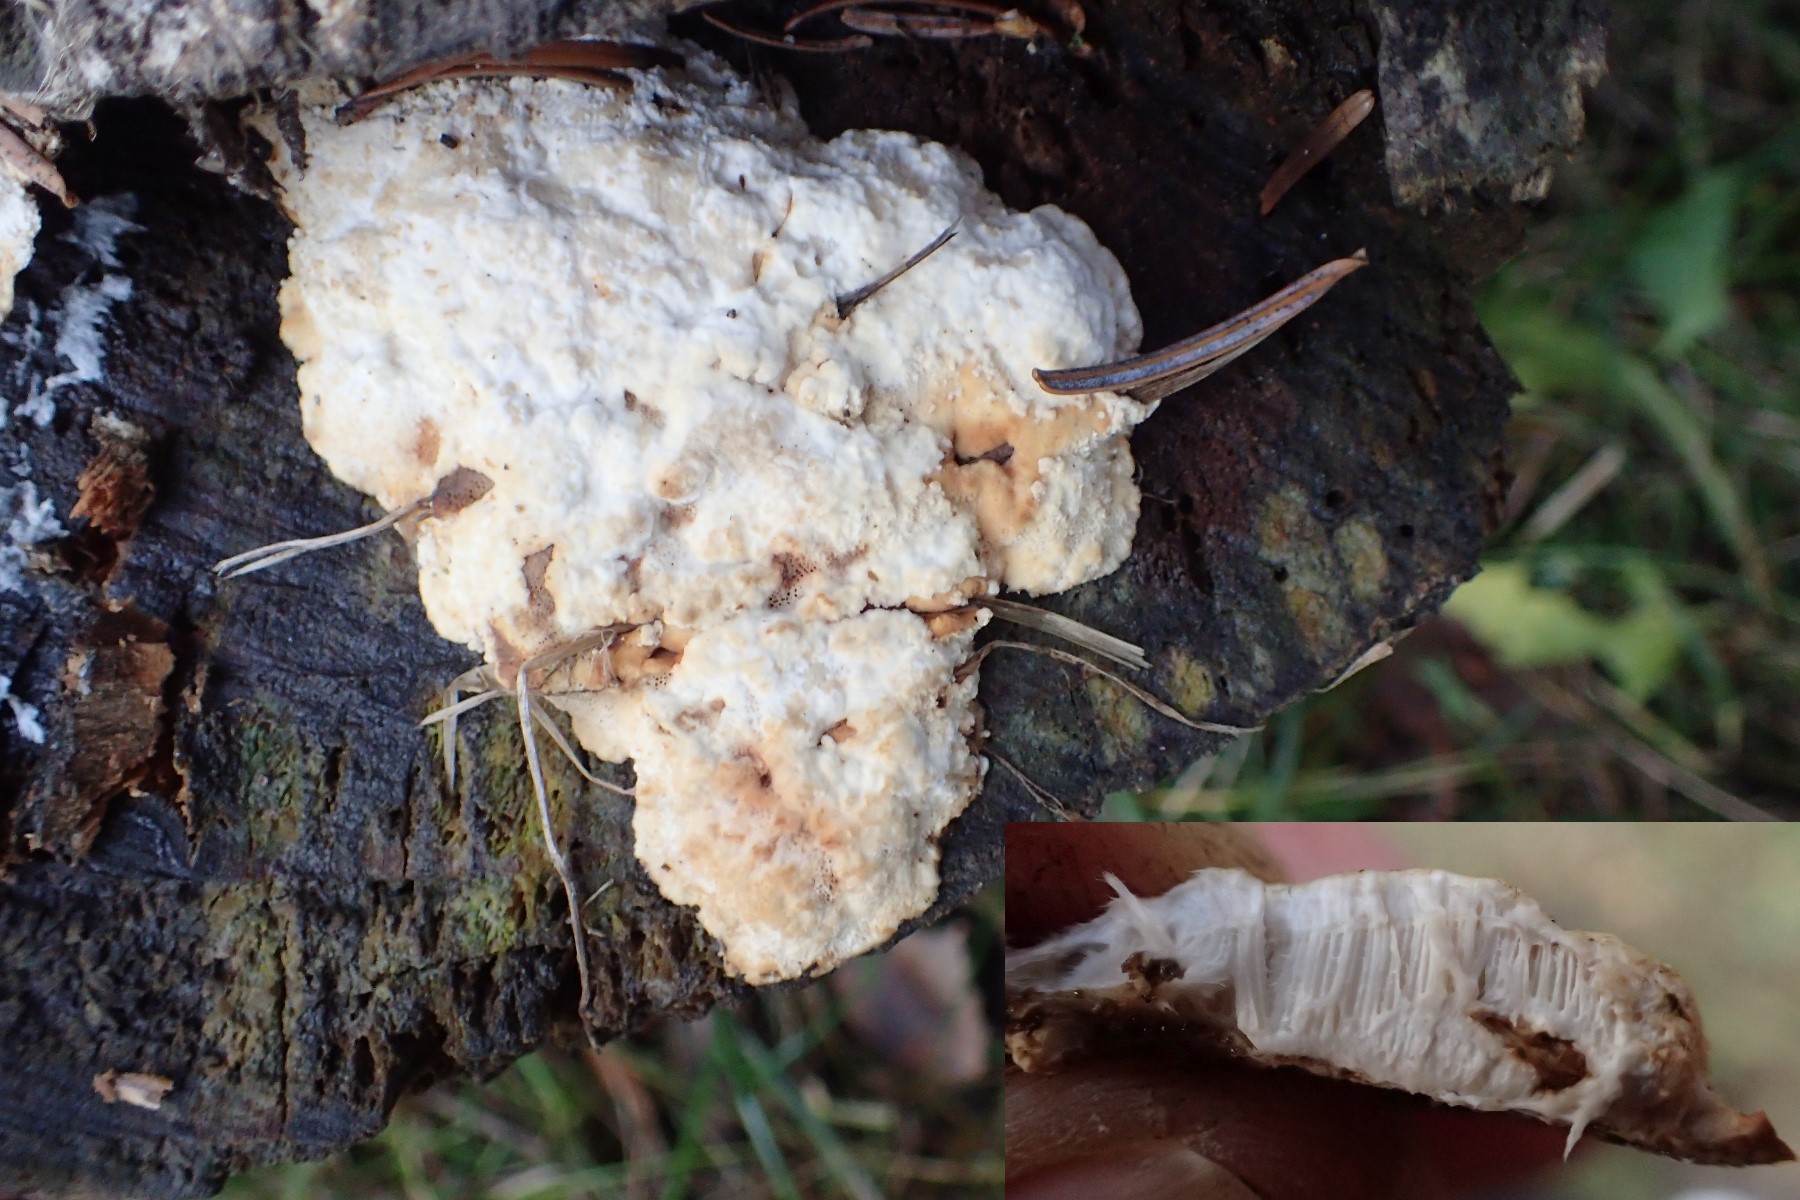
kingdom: Fungi
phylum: Basidiomycota
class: Agaricomycetes
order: Polyporales
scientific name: Polyporales
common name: poresvampordenen
